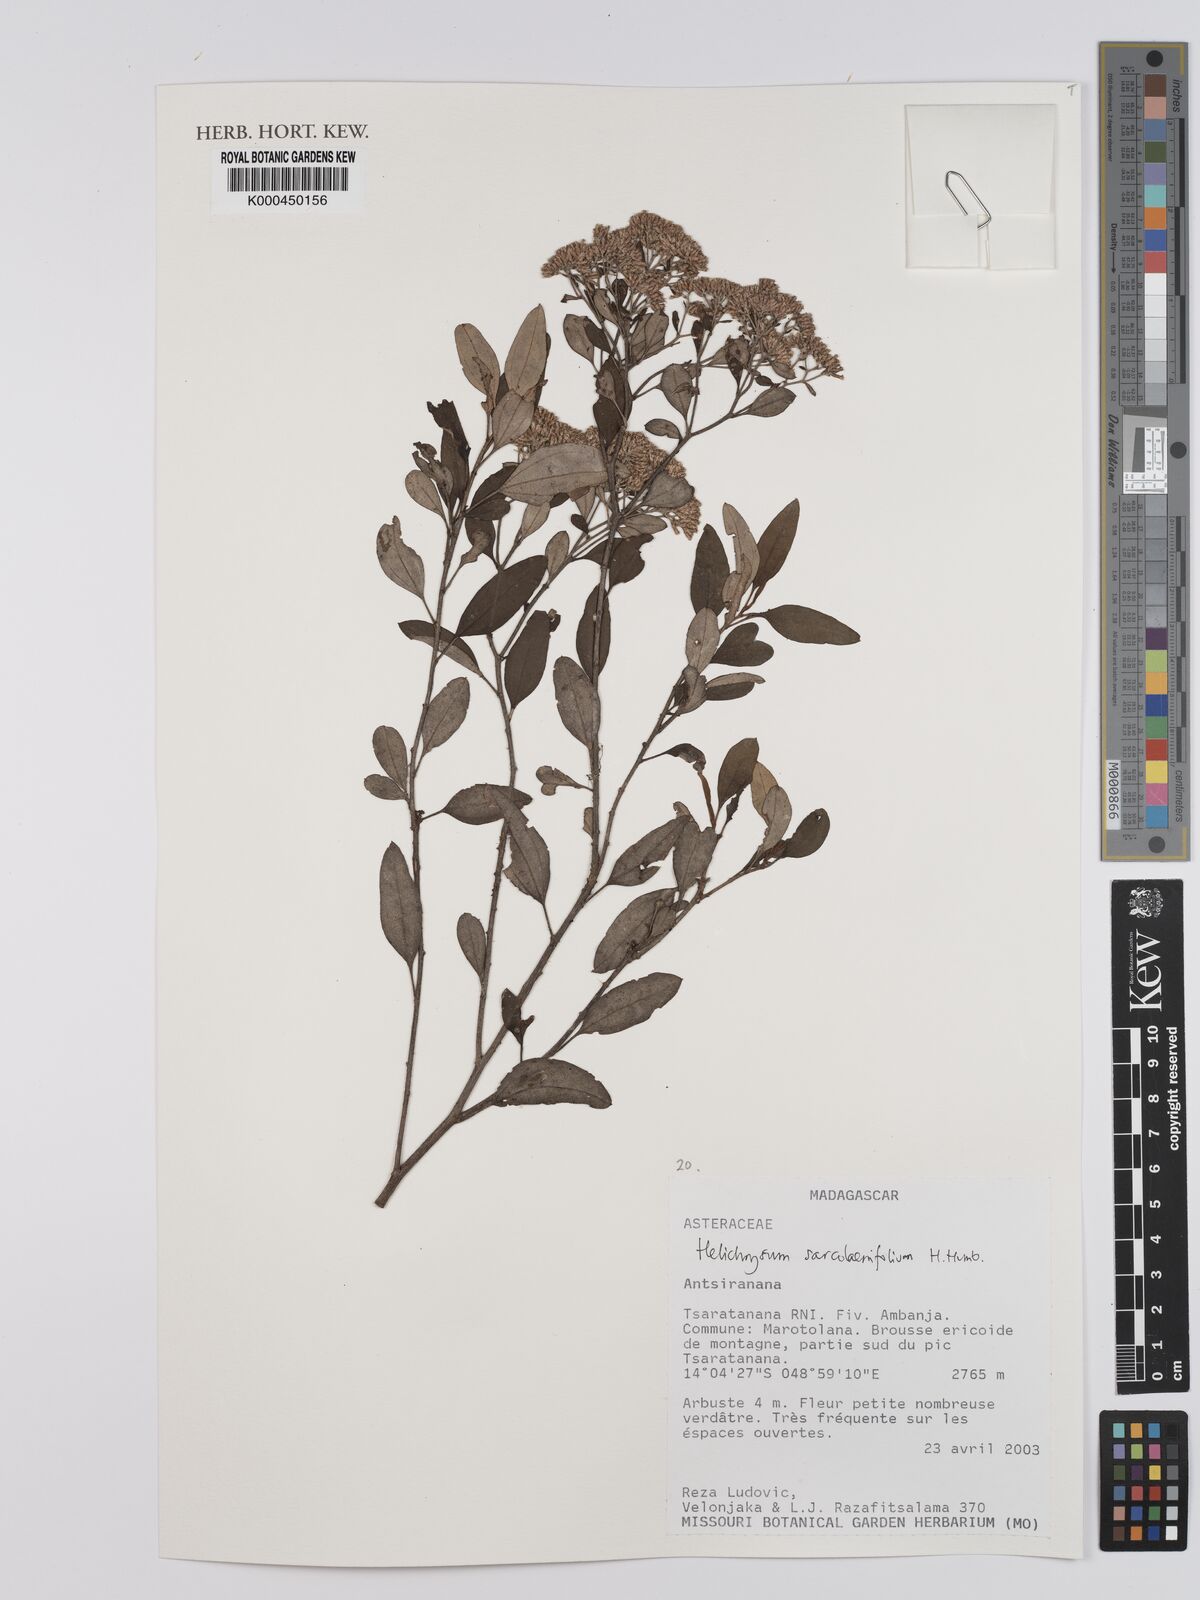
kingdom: Plantae
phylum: Tracheophyta
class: Magnoliopsida
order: Asterales
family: Asteraceae
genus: Helichrysum
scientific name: Helichrysum sarcolaenifolium
